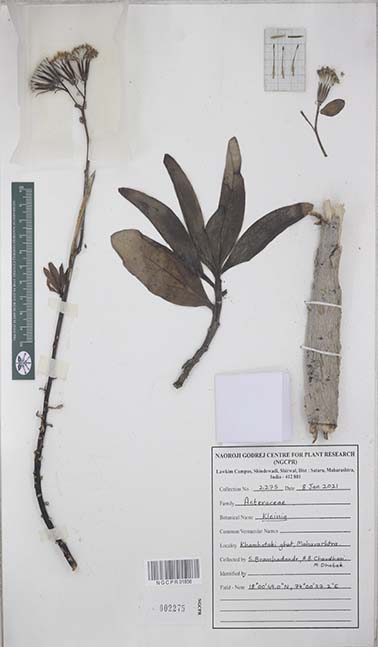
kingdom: Plantae
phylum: Tracheophyta
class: Magnoliopsida
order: Asterales
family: Asteraceae
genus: Kleinia
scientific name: Kleinia
